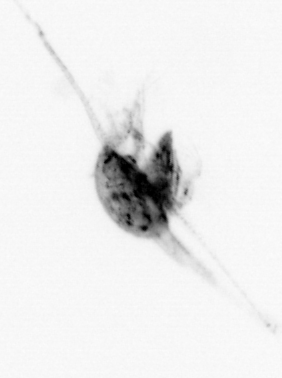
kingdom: Animalia
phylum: Arthropoda
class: Copepoda
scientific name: Copepoda
